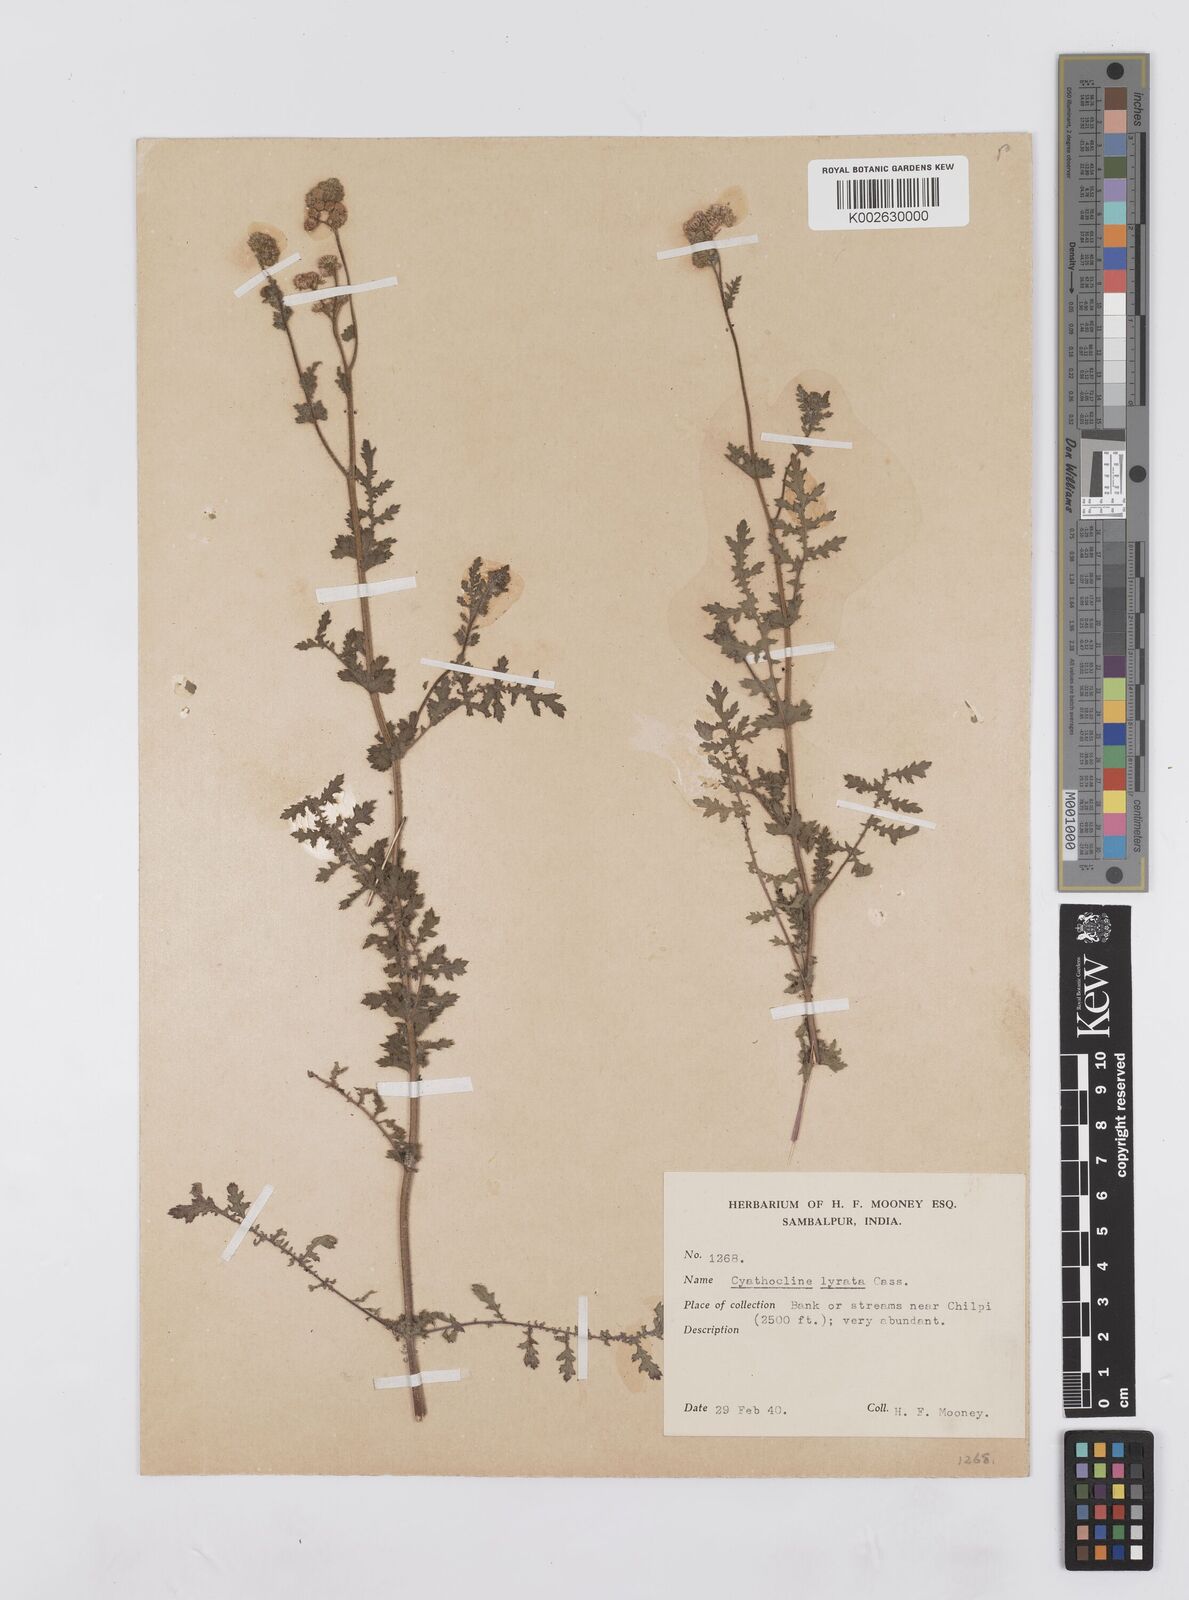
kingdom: Plantae
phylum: Tracheophyta
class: Magnoliopsida
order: Asterales
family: Asteraceae
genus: Cyathocline
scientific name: Cyathocline purpurea
